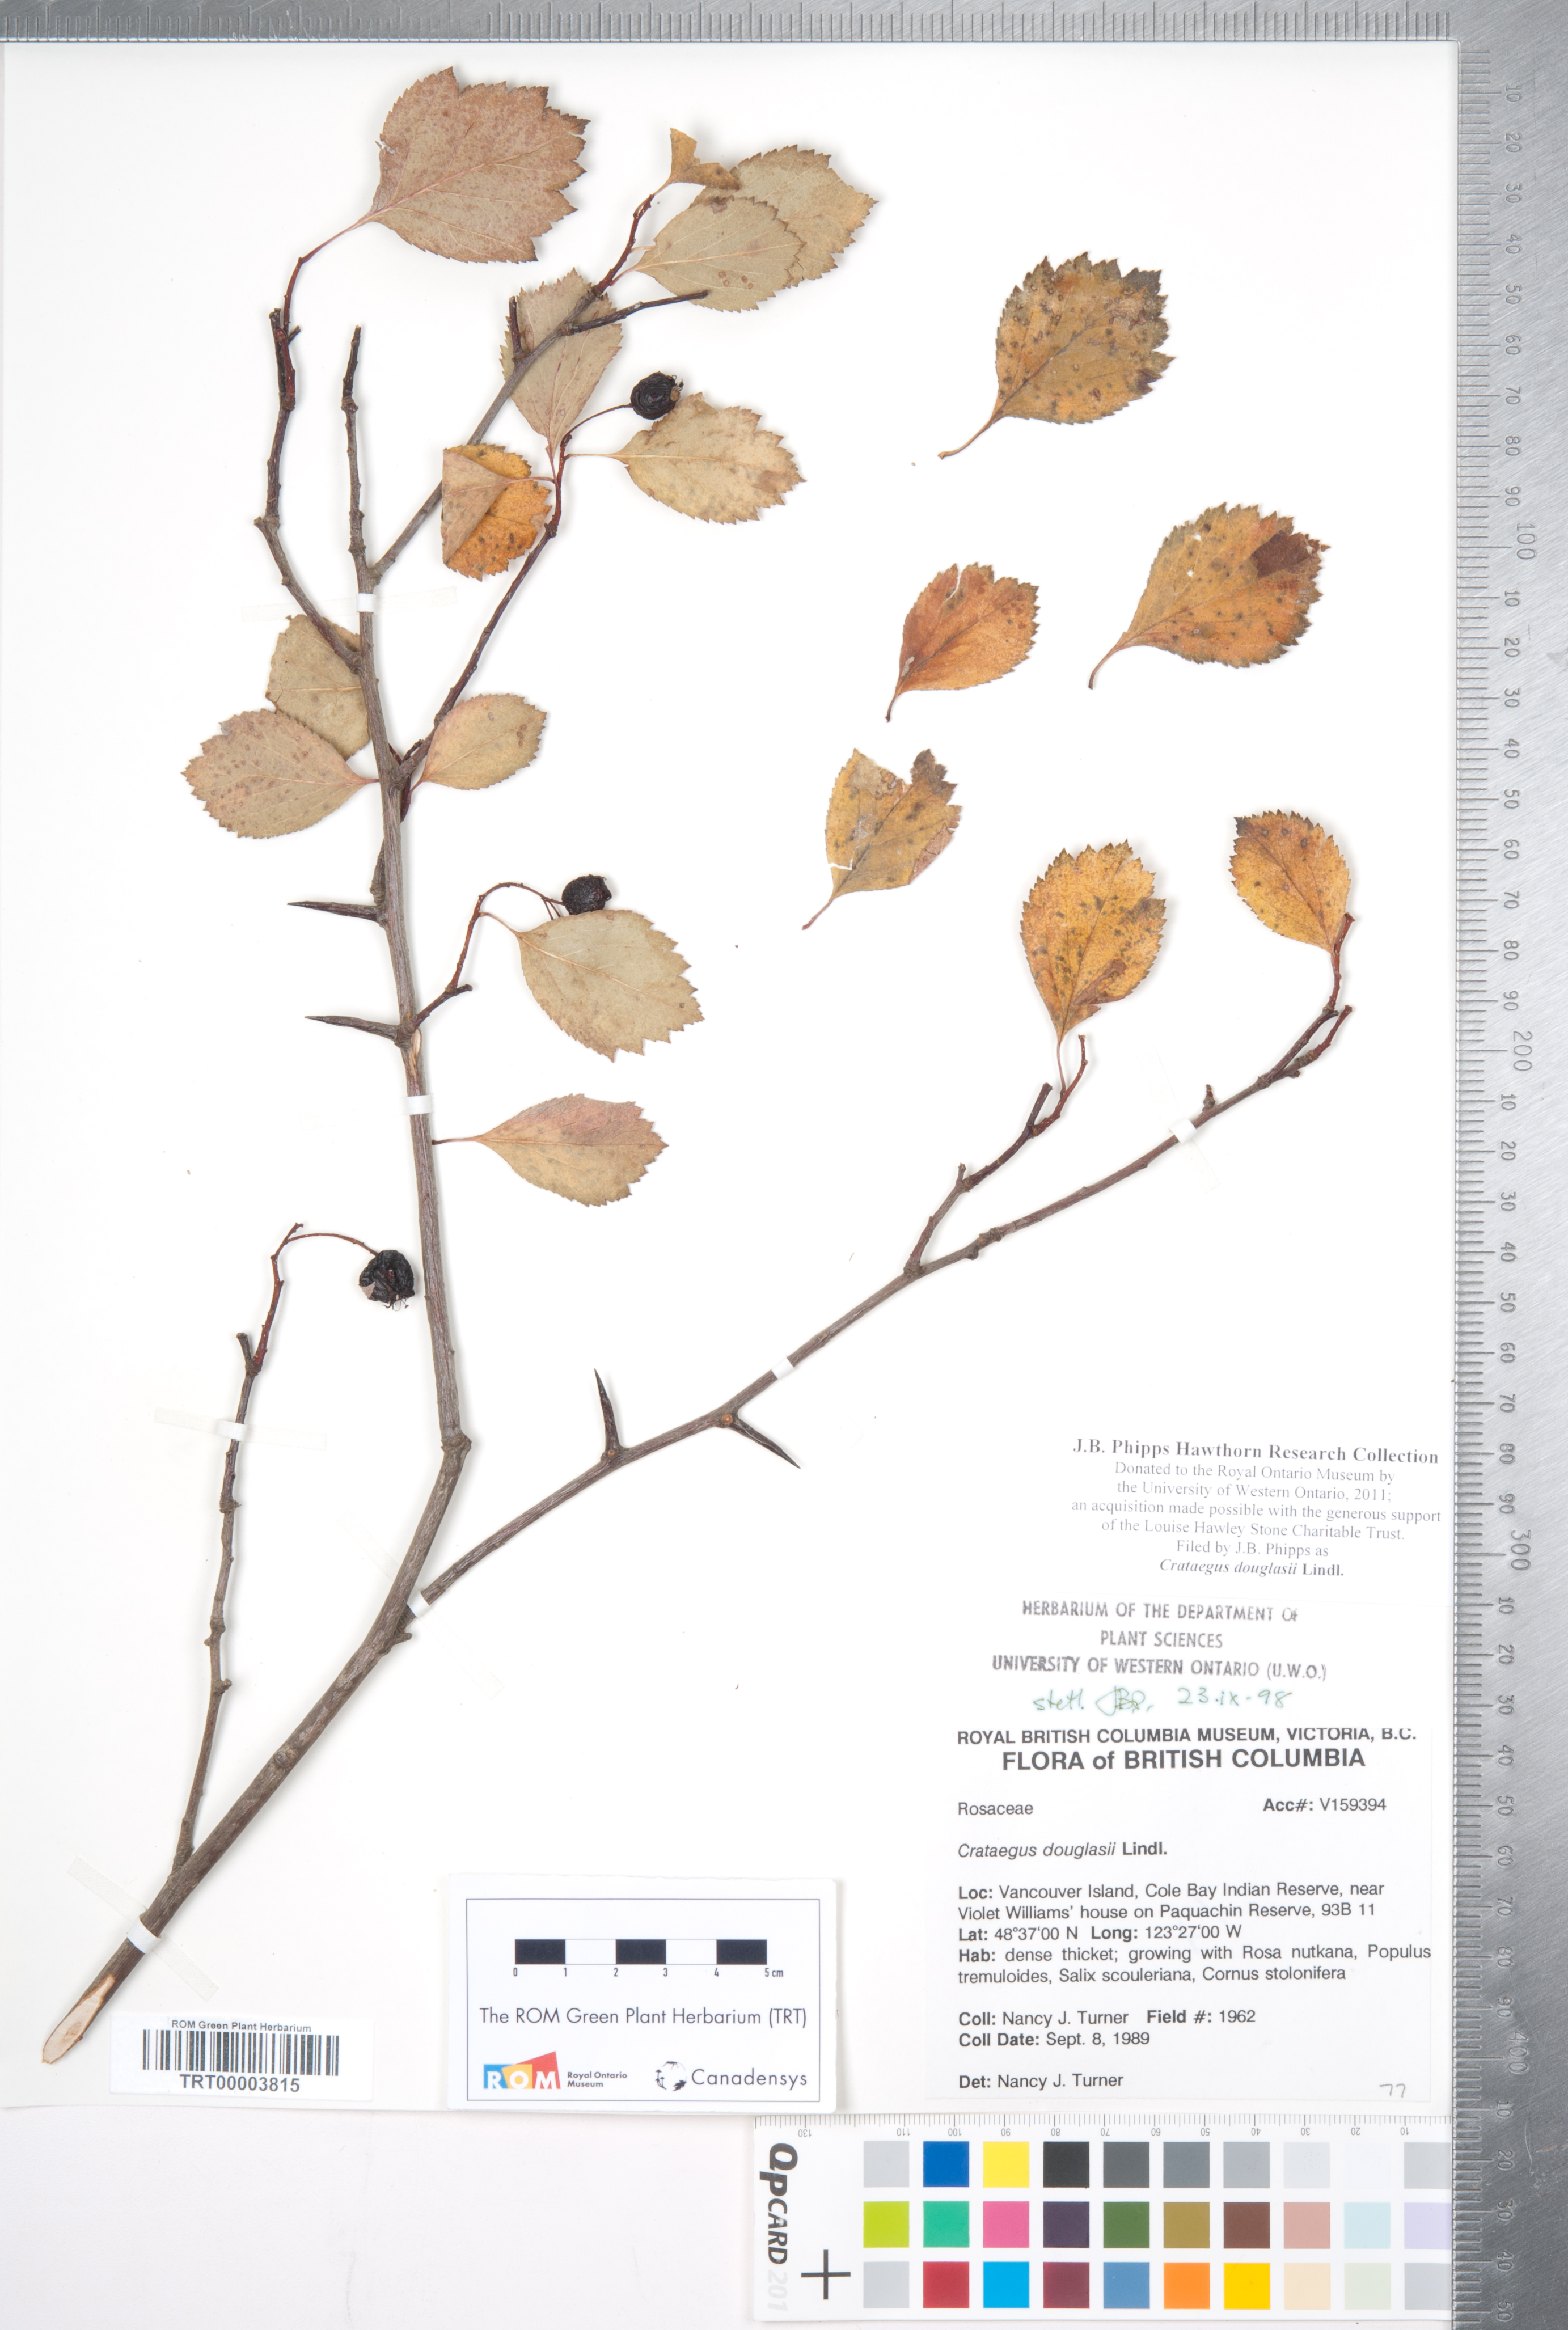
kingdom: Plantae
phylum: Tracheophyta
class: Magnoliopsida
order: Rosales
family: Rosaceae
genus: Crataegus
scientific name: Crataegus douglasii
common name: Black hawthorn
